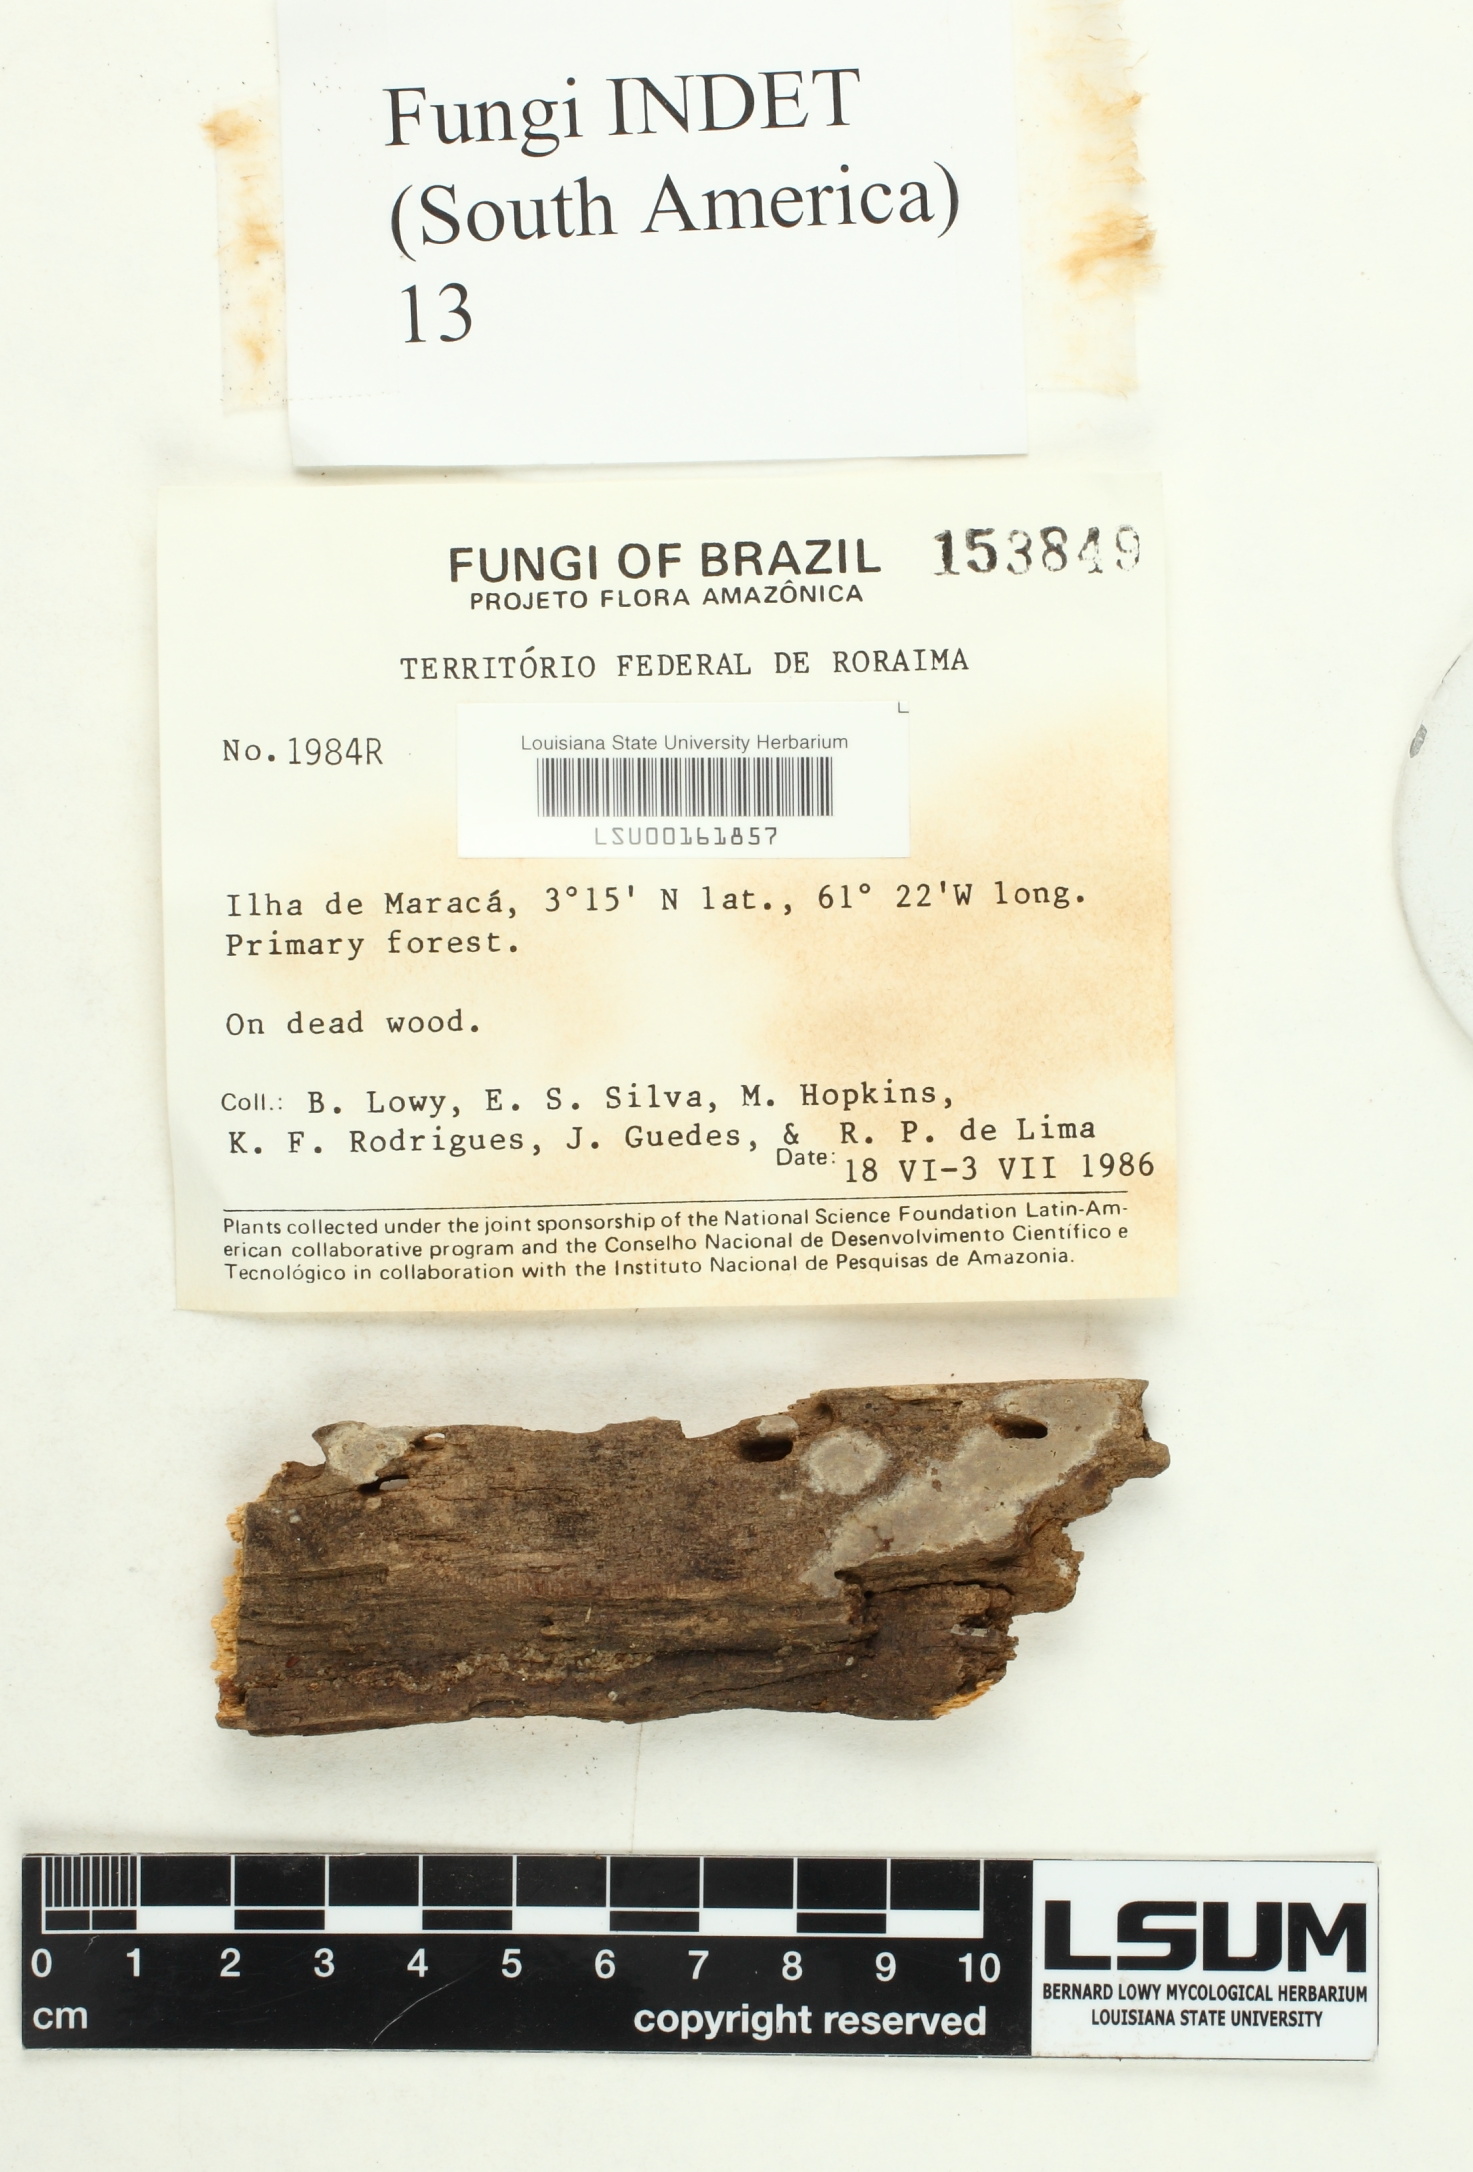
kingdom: Fungi
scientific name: Fungi
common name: Fungi
